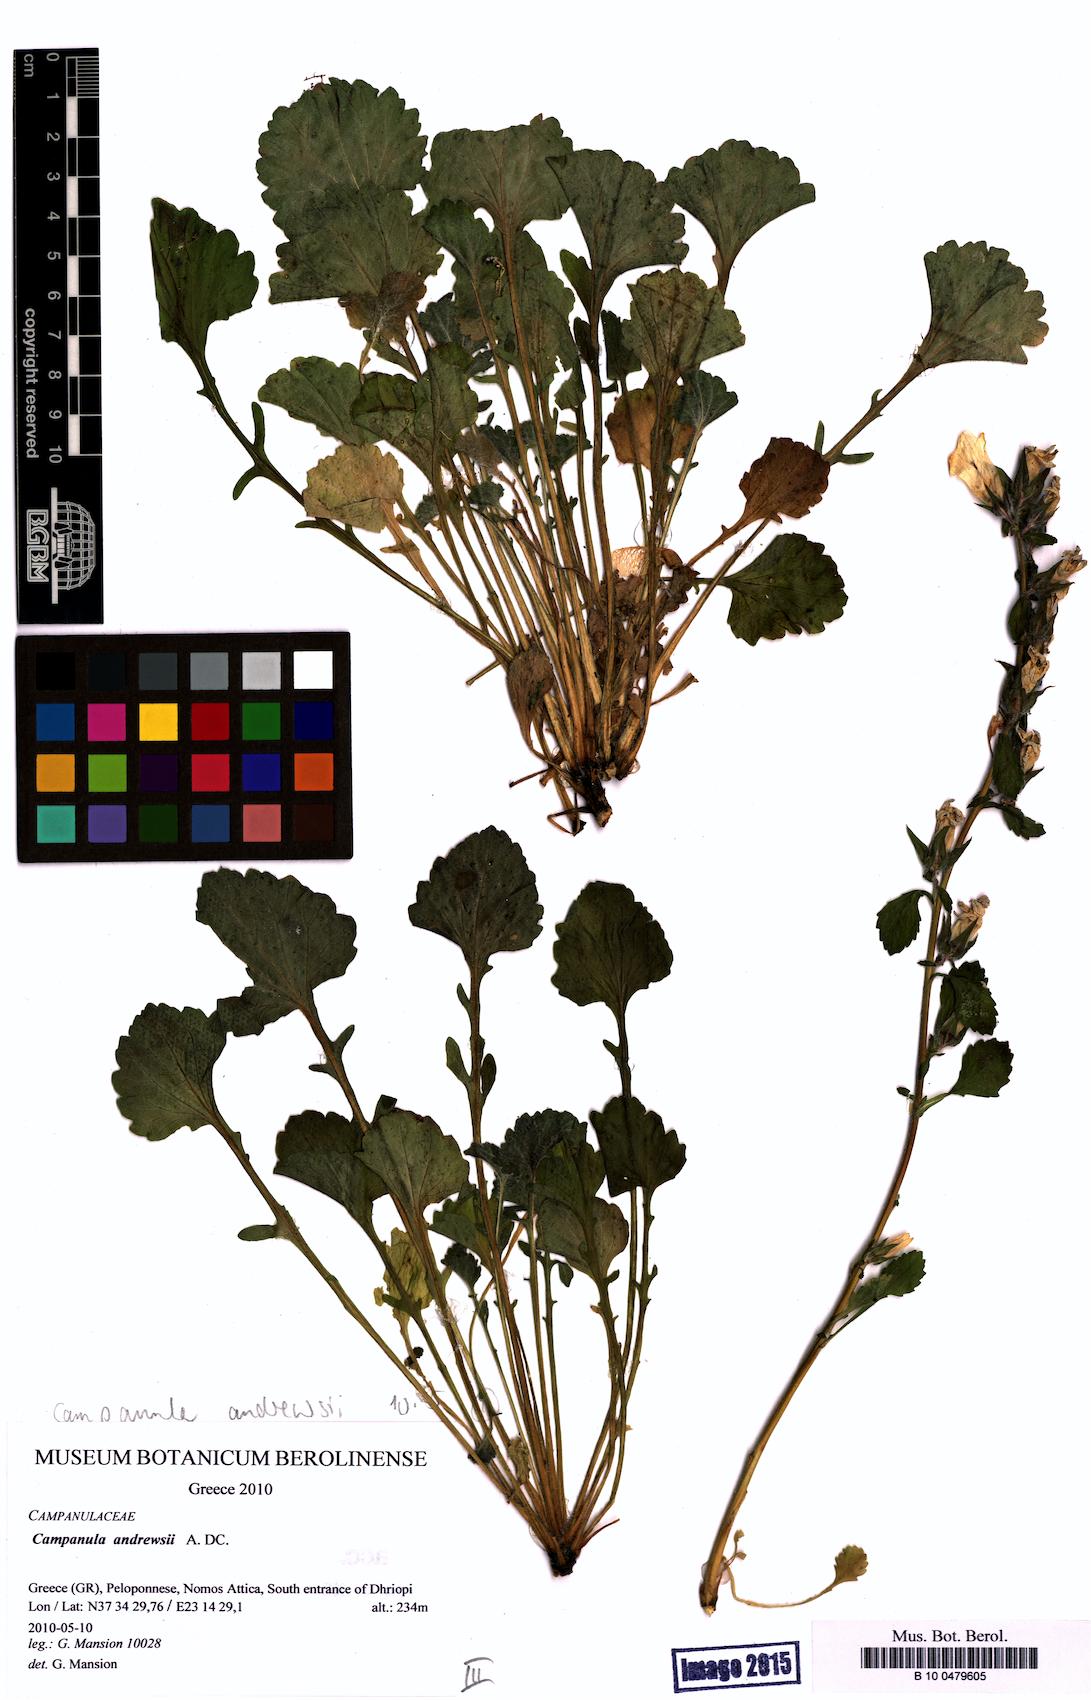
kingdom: Plantae
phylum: Tracheophyta
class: Magnoliopsida
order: Asterales
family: Campanulaceae
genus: Campanula
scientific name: Campanula andrewsii
